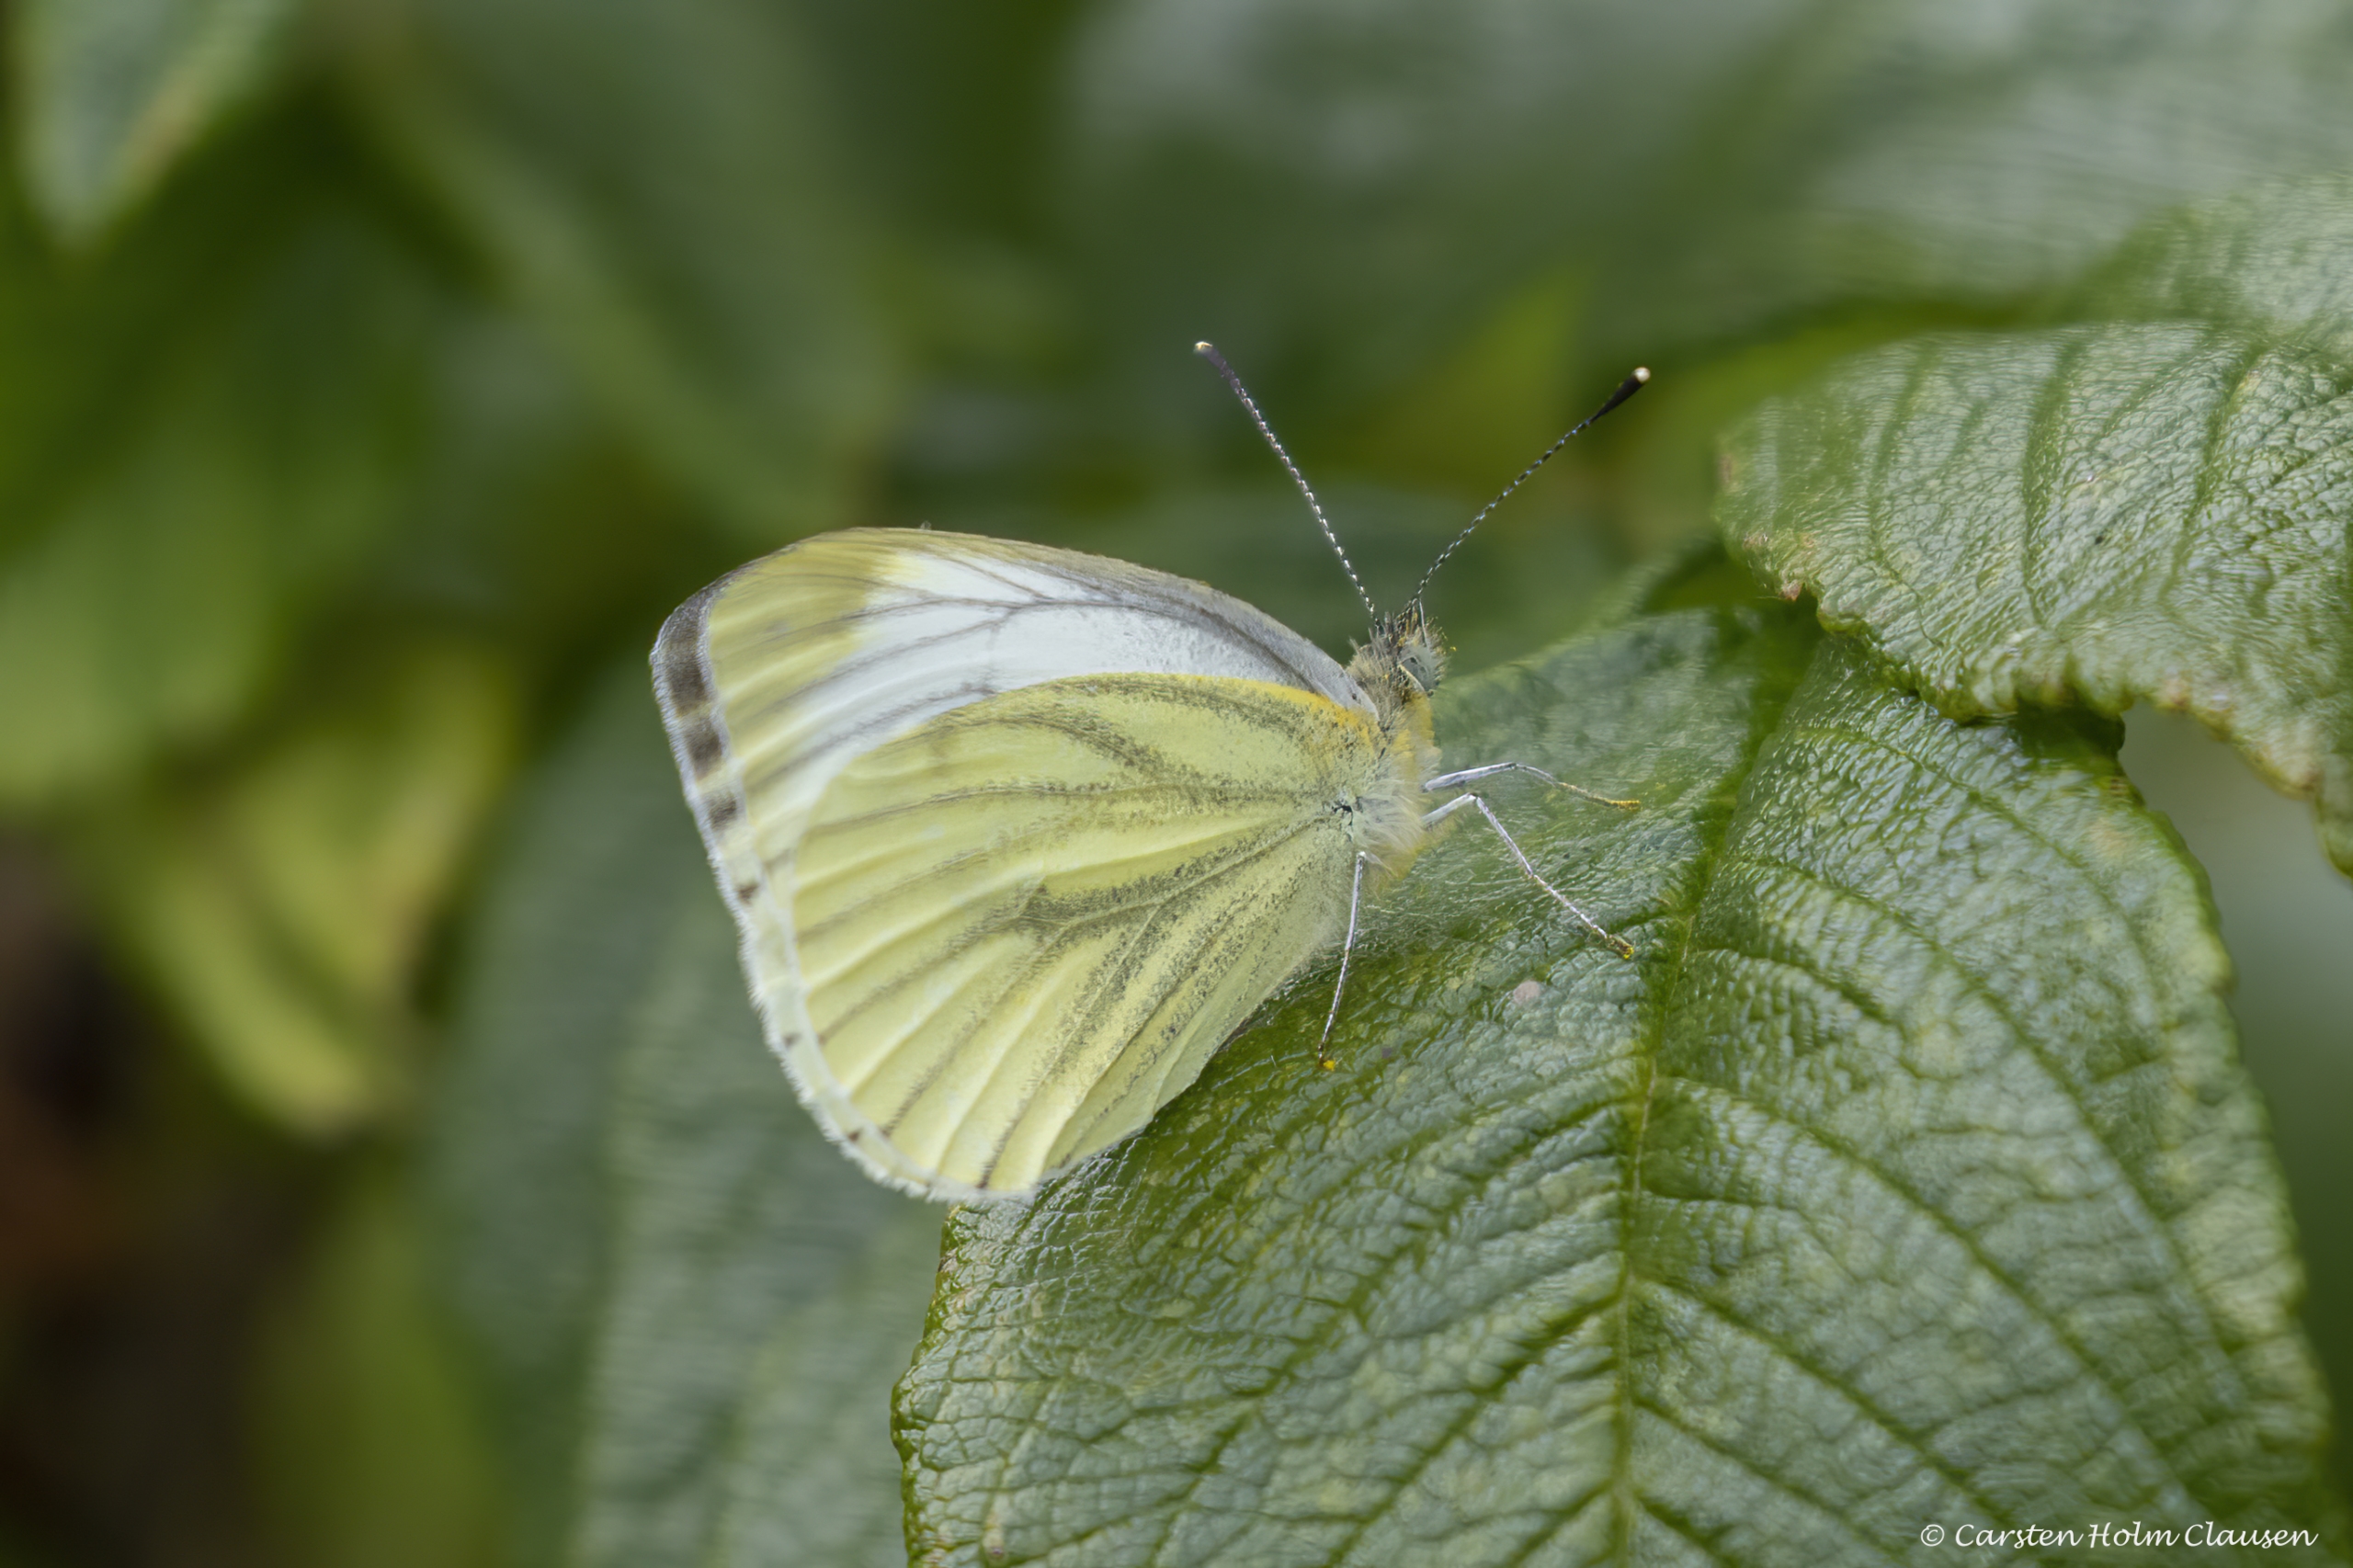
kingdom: Animalia
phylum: Arthropoda
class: Insecta
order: Lepidoptera
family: Pieridae
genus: Pieris
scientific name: Pieris napi
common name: Grønåret kålsommerfugl
